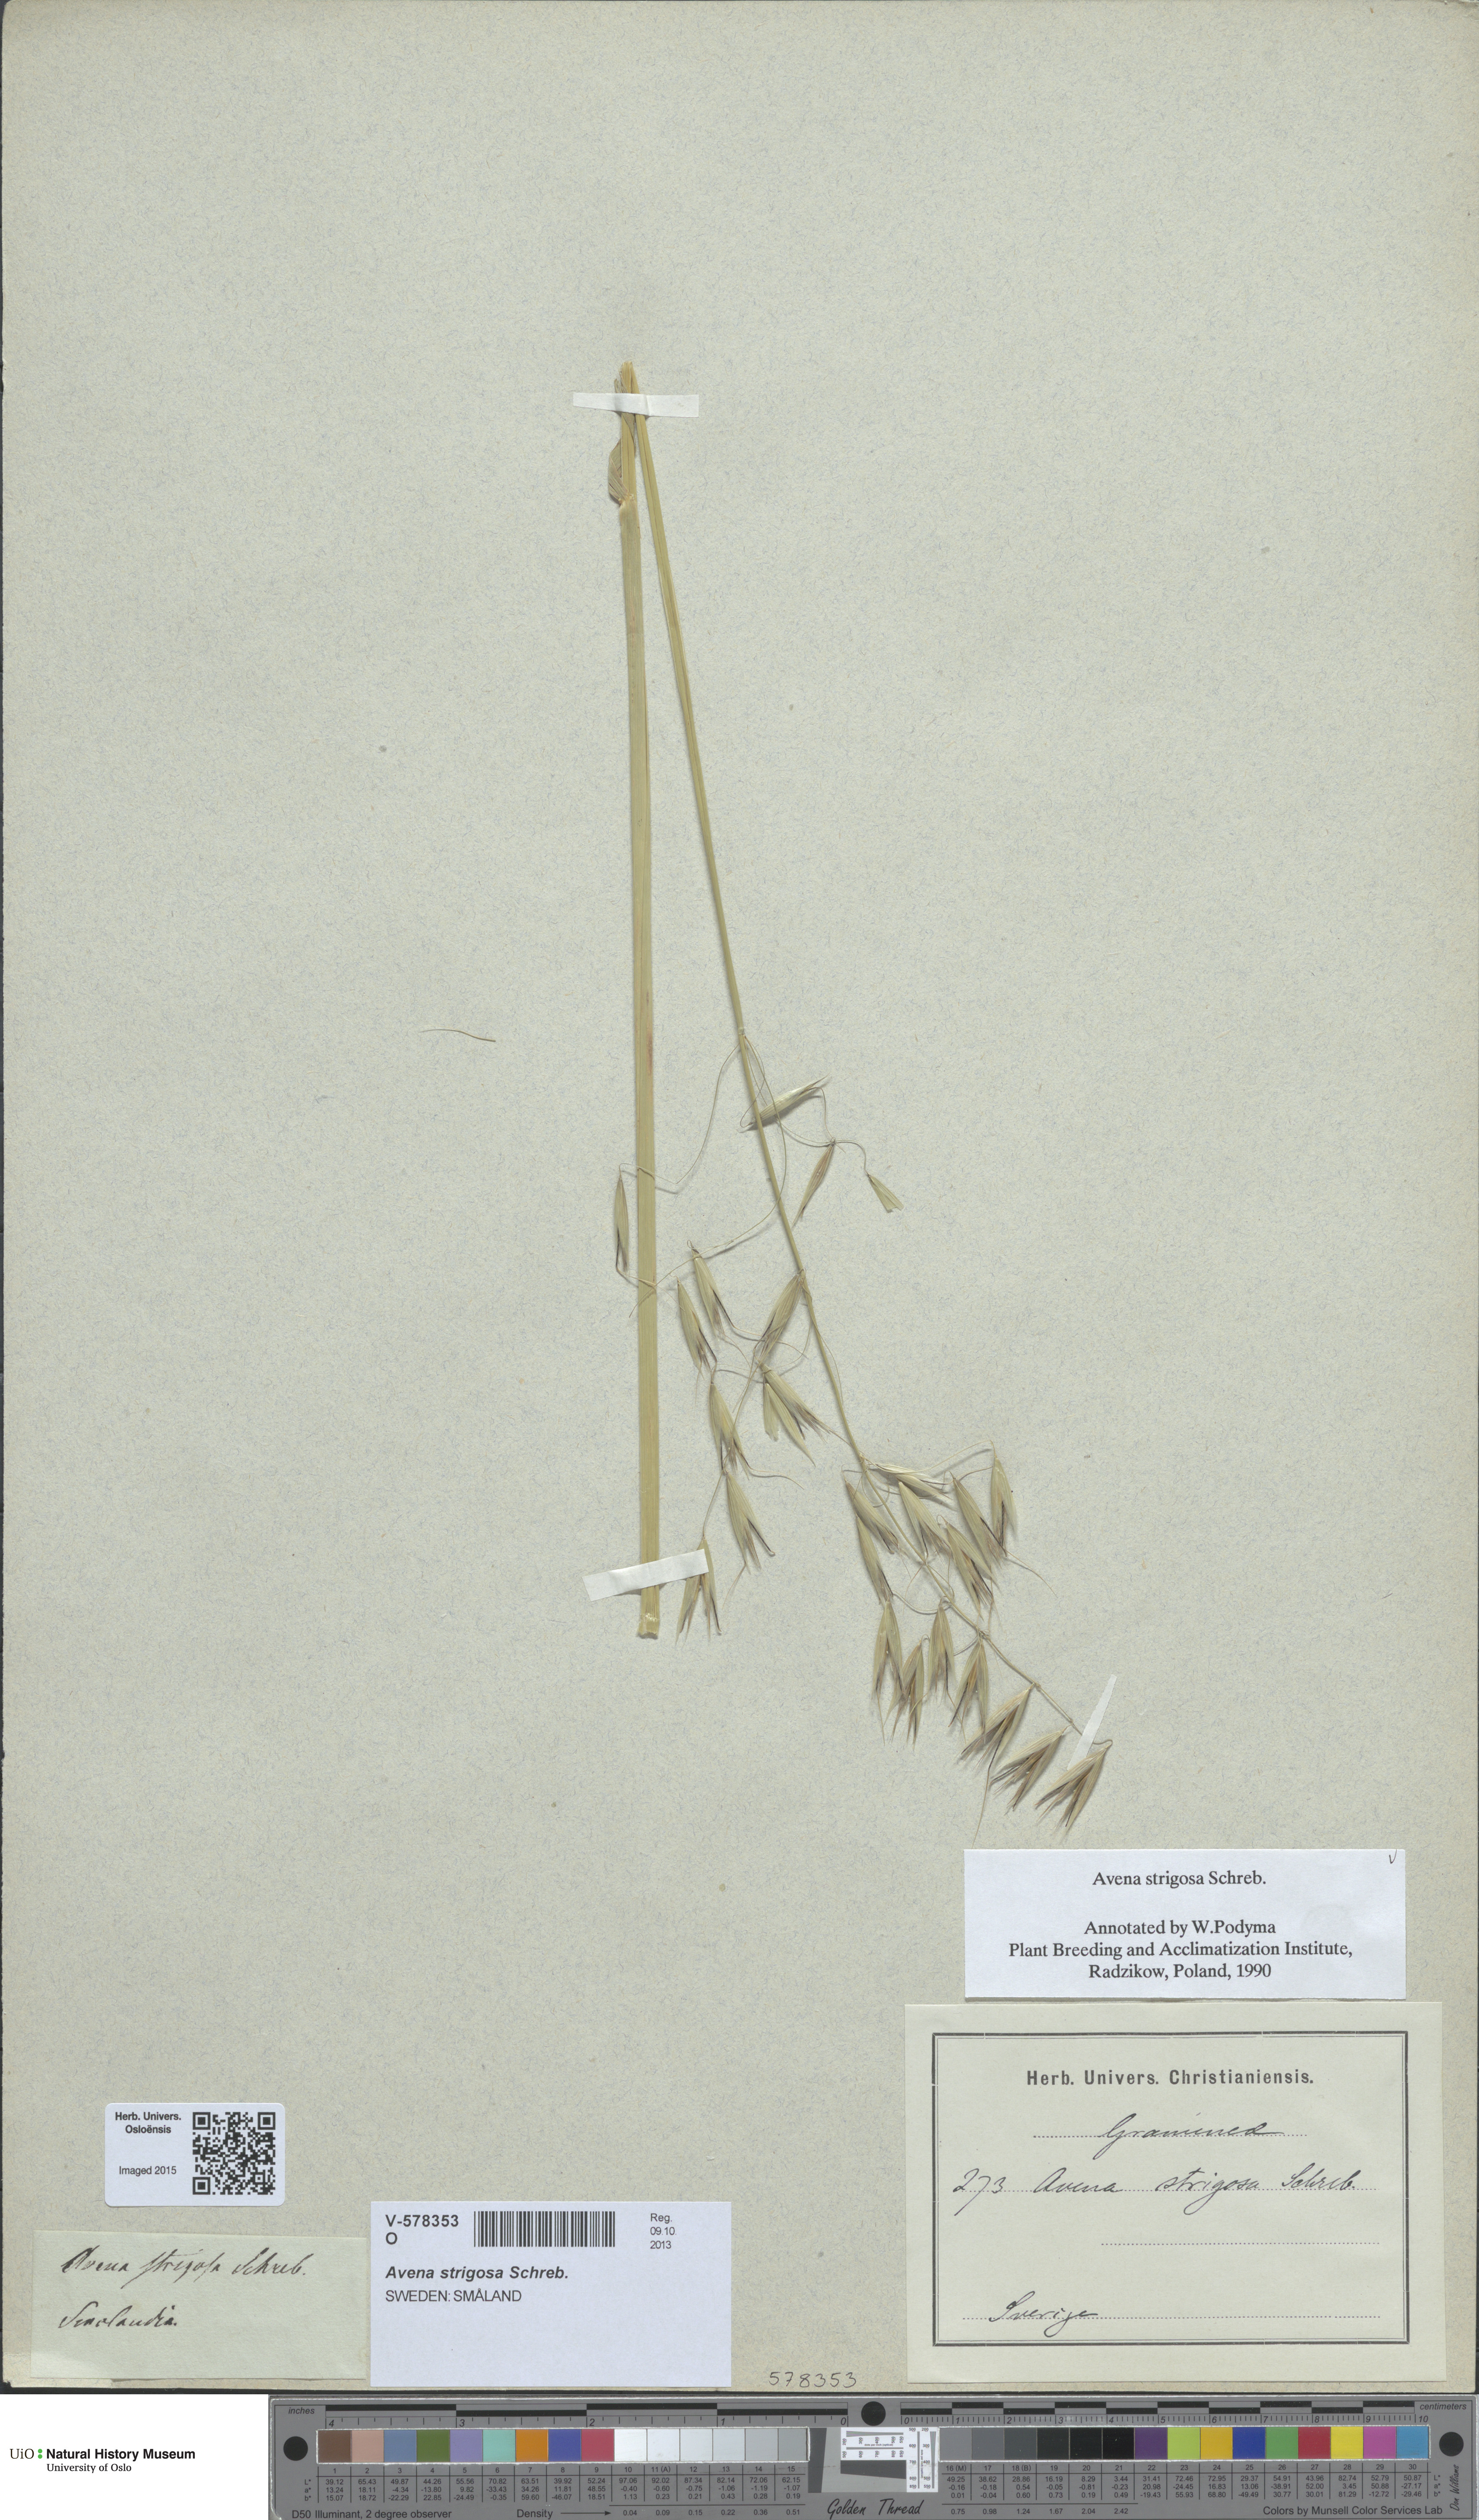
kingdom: Plantae
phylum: Tracheophyta
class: Liliopsida
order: Poales
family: Poaceae
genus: Avena
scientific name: Avena strigosa
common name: Bristle oat
